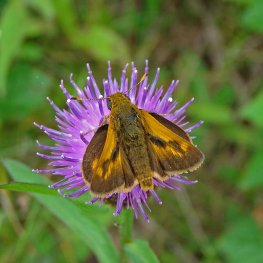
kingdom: Animalia
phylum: Arthropoda
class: Insecta
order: Lepidoptera
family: Hesperiidae
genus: Polites
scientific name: Polites
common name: Long Dash Skipper
